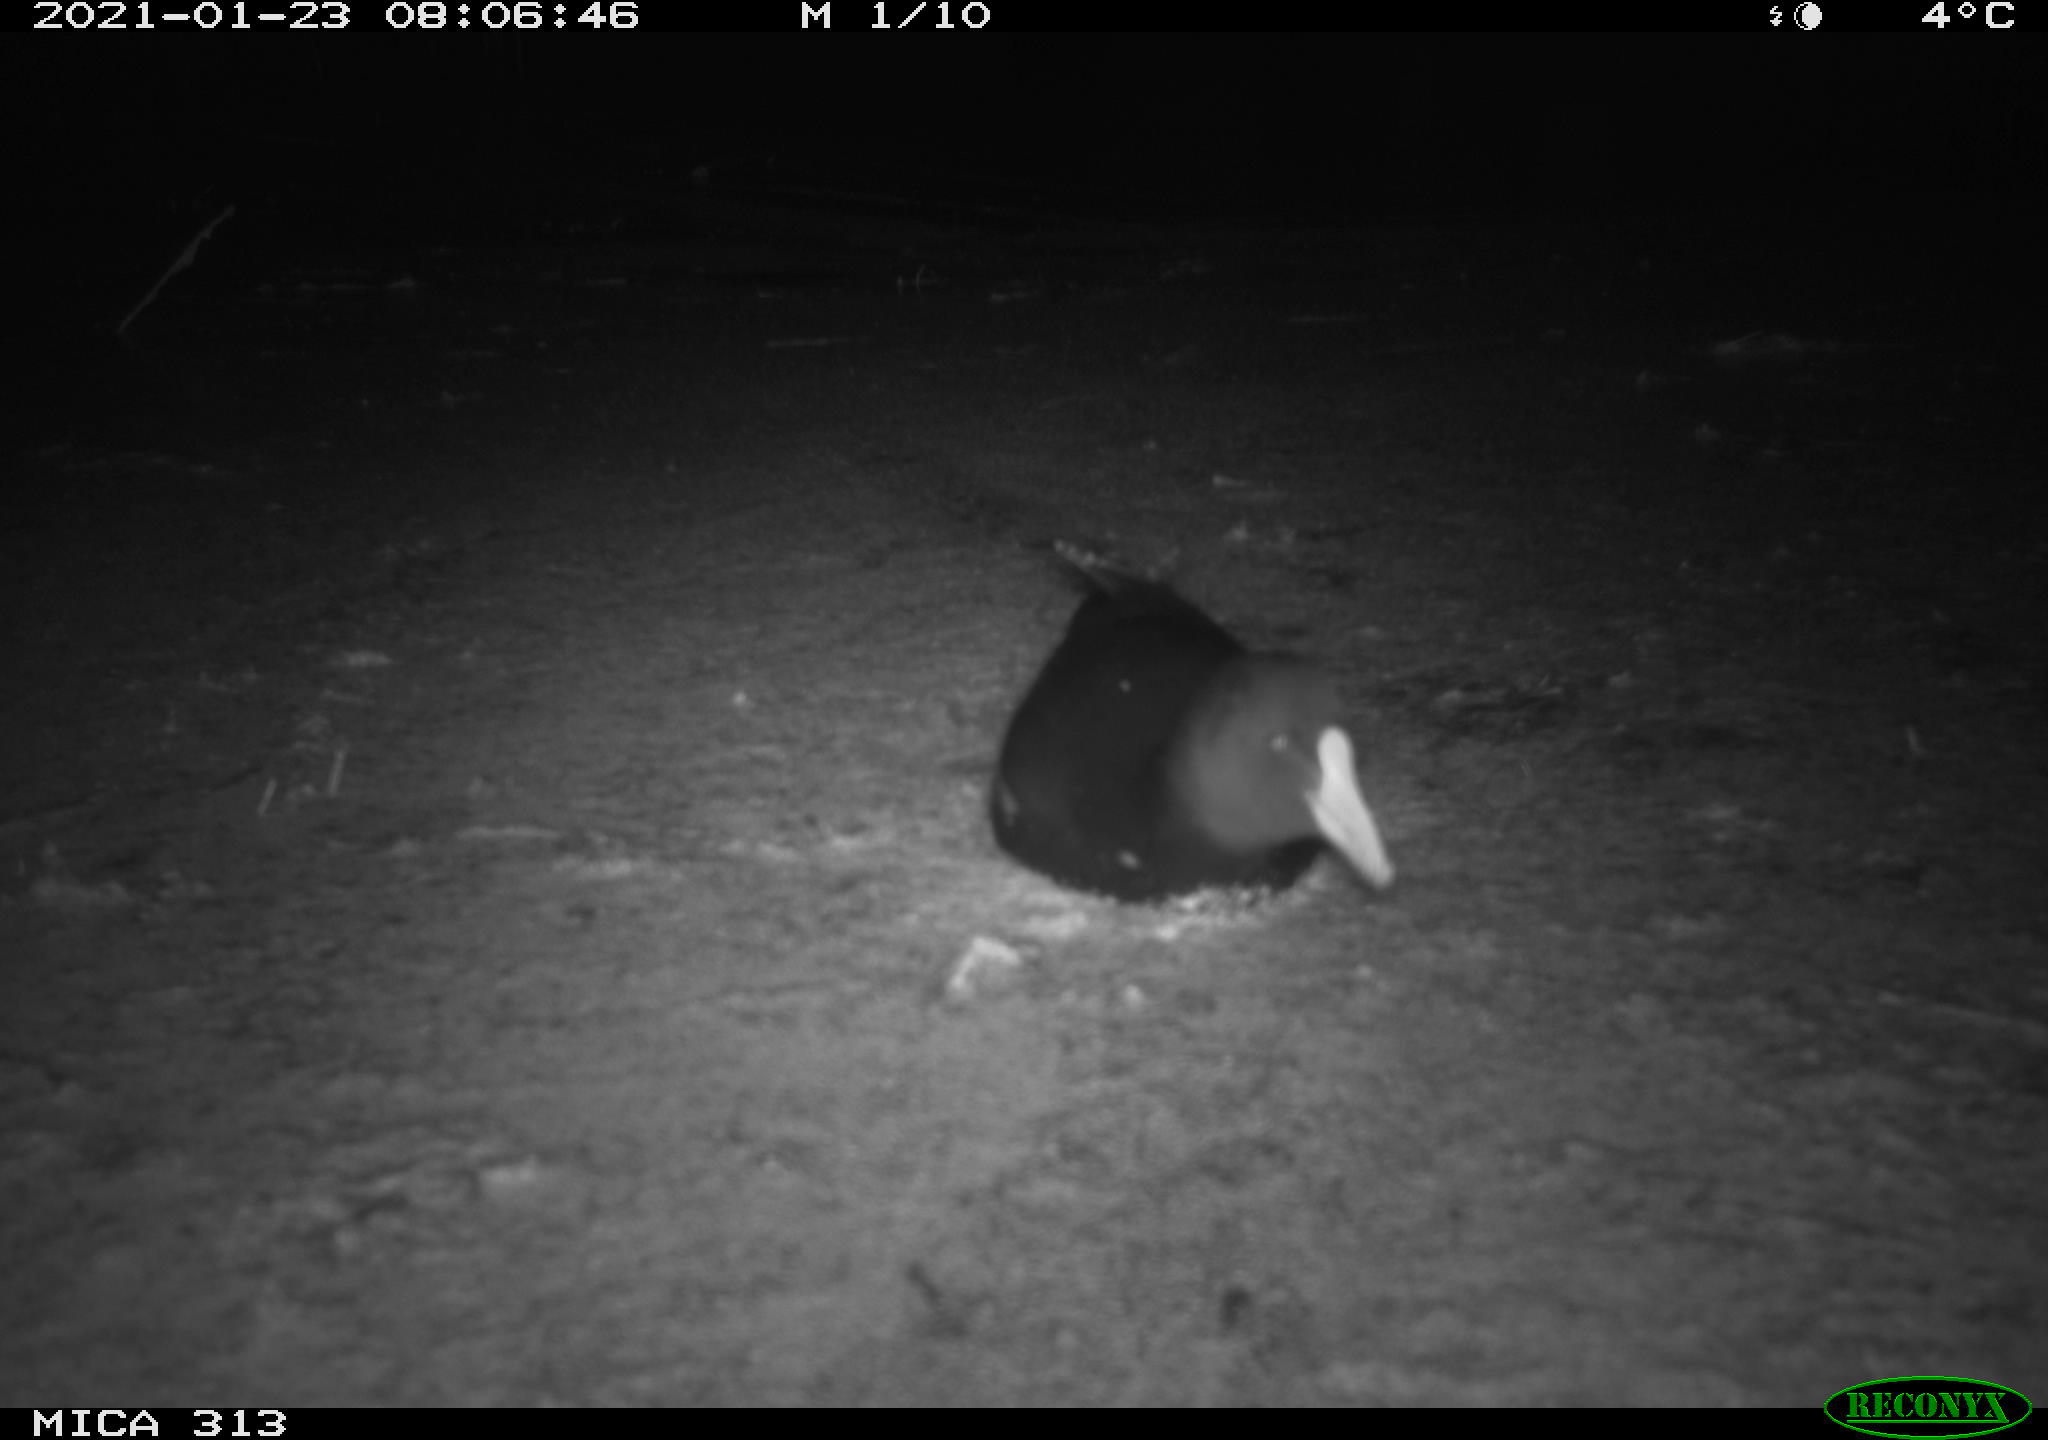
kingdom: Animalia
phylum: Chordata
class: Aves
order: Gruiformes
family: Rallidae
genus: Gallinula
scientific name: Gallinula chloropus
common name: Common moorhen
